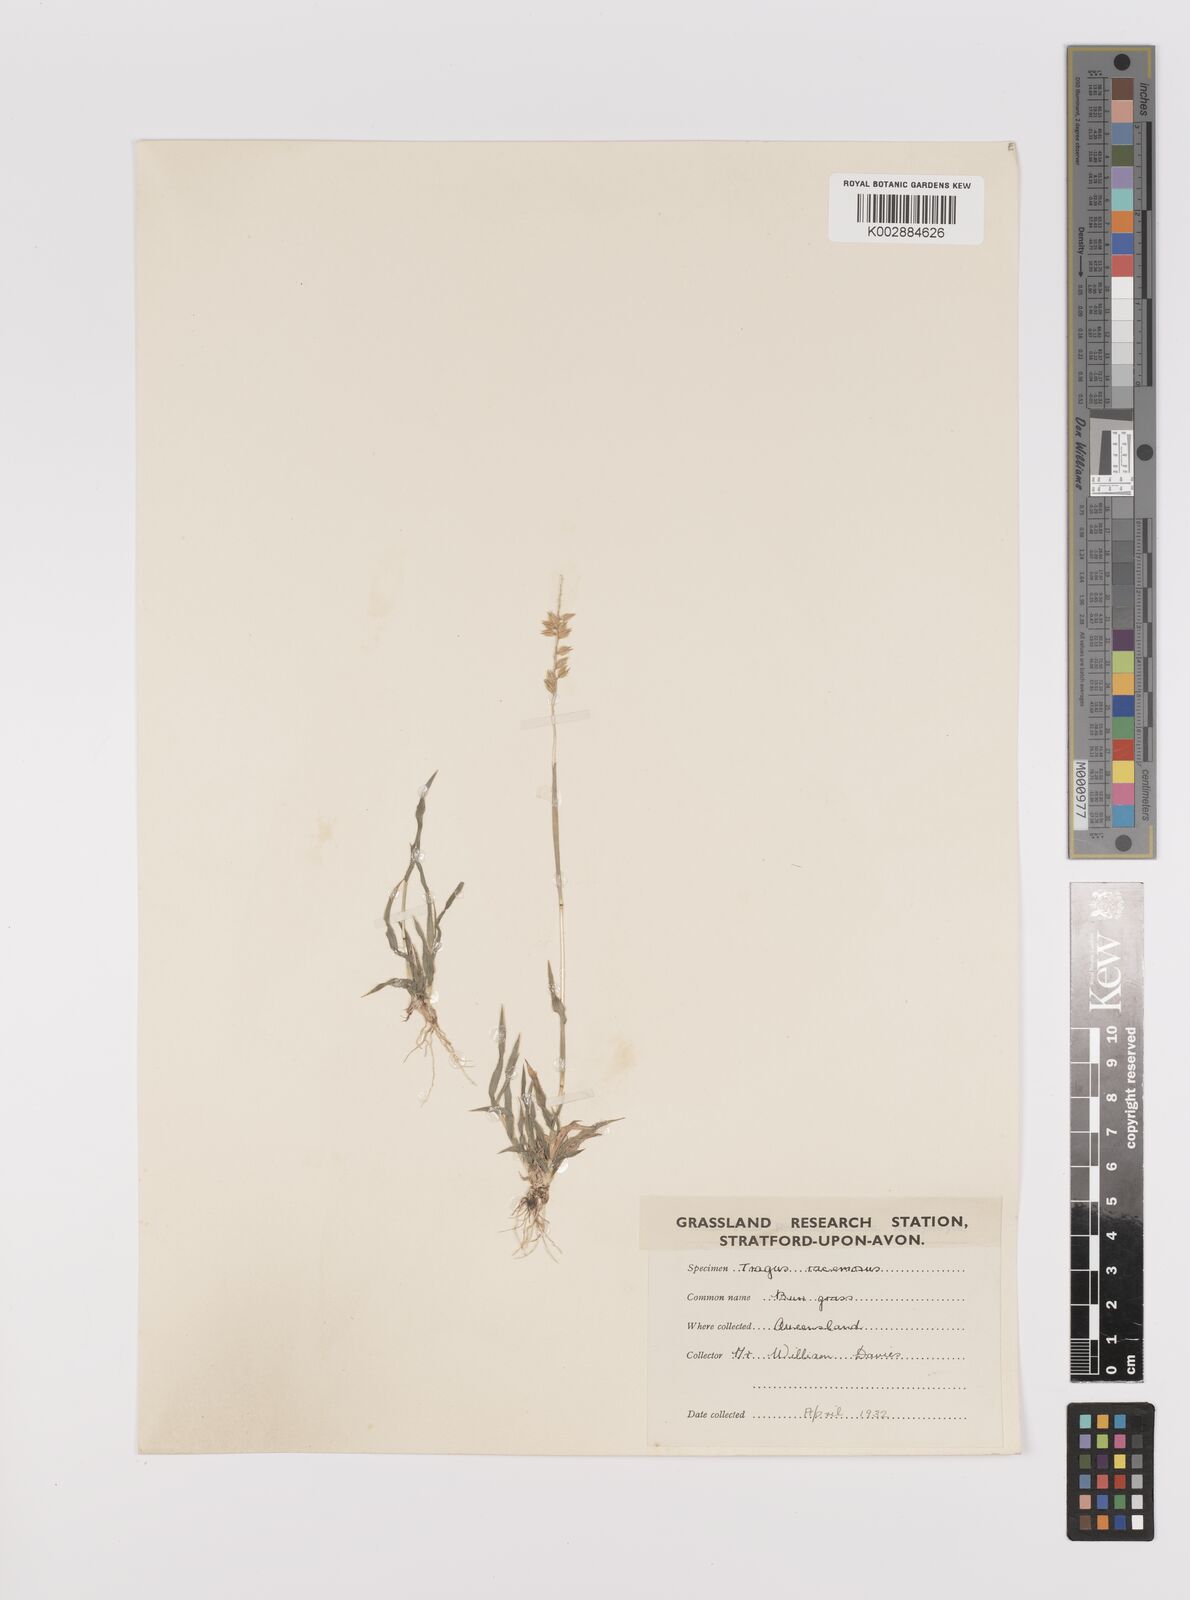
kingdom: Plantae
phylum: Tracheophyta
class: Liliopsida
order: Poales
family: Poaceae
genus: Tragus
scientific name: Tragus australianus
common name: Australian bur-grass
